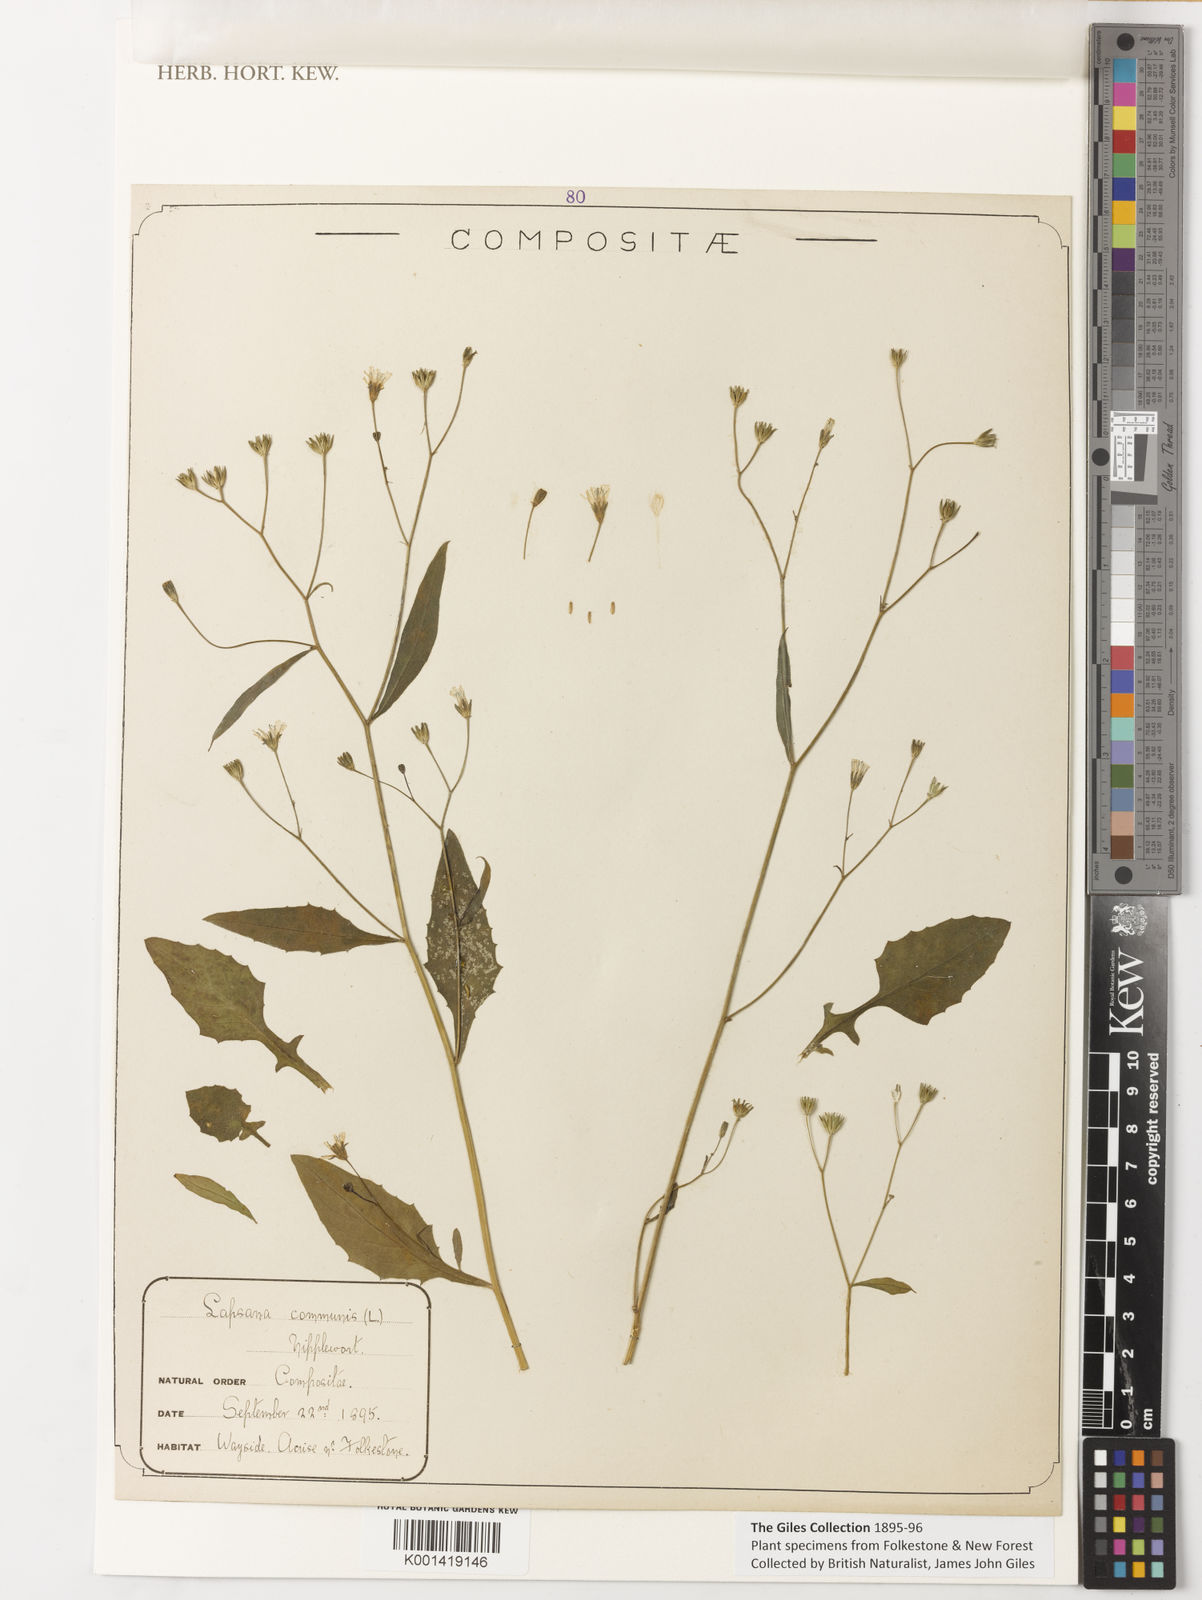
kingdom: Plantae
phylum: Tracheophyta
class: Magnoliopsida
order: Asterales
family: Asteraceae
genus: Lapsana
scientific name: Lapsana communis
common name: Nipplewort
